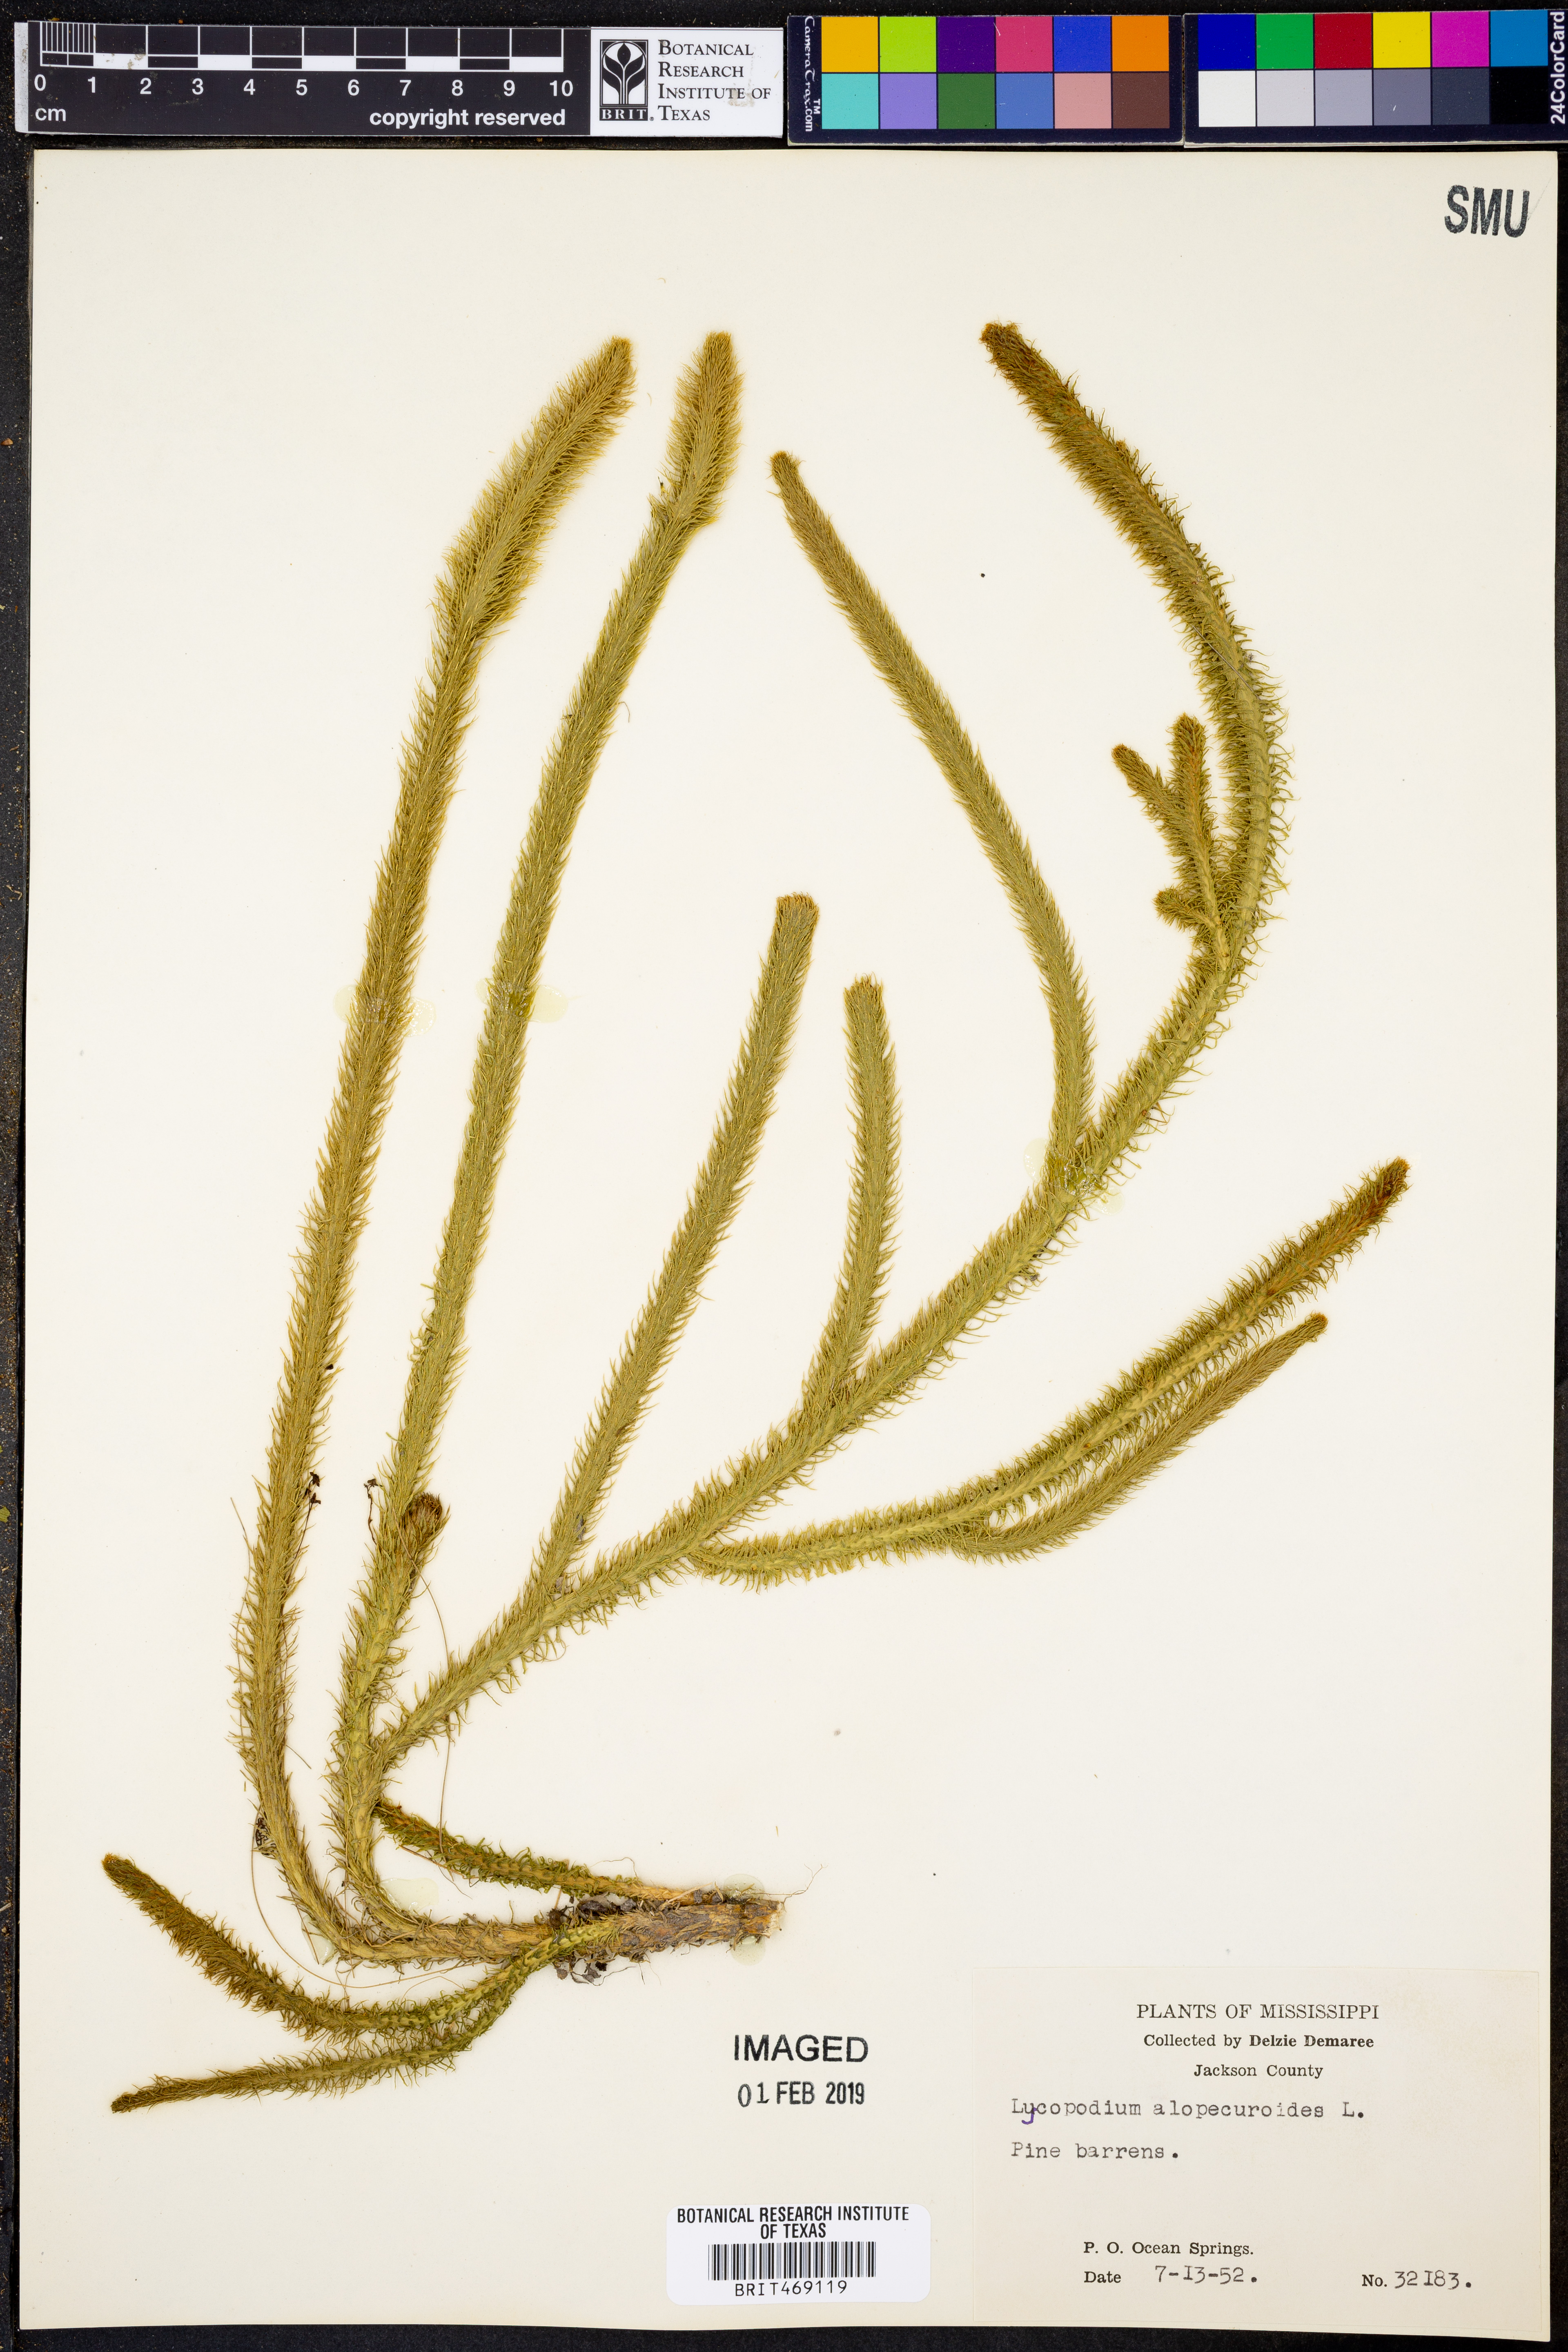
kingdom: Plantae
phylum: Tracheophyta
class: Lycopodiopsida
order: Lycopodiales
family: Lycopodiaceae
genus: Lycopodiella
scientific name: Lycopodiella alopecuroides
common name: Foxtail clubmoss
